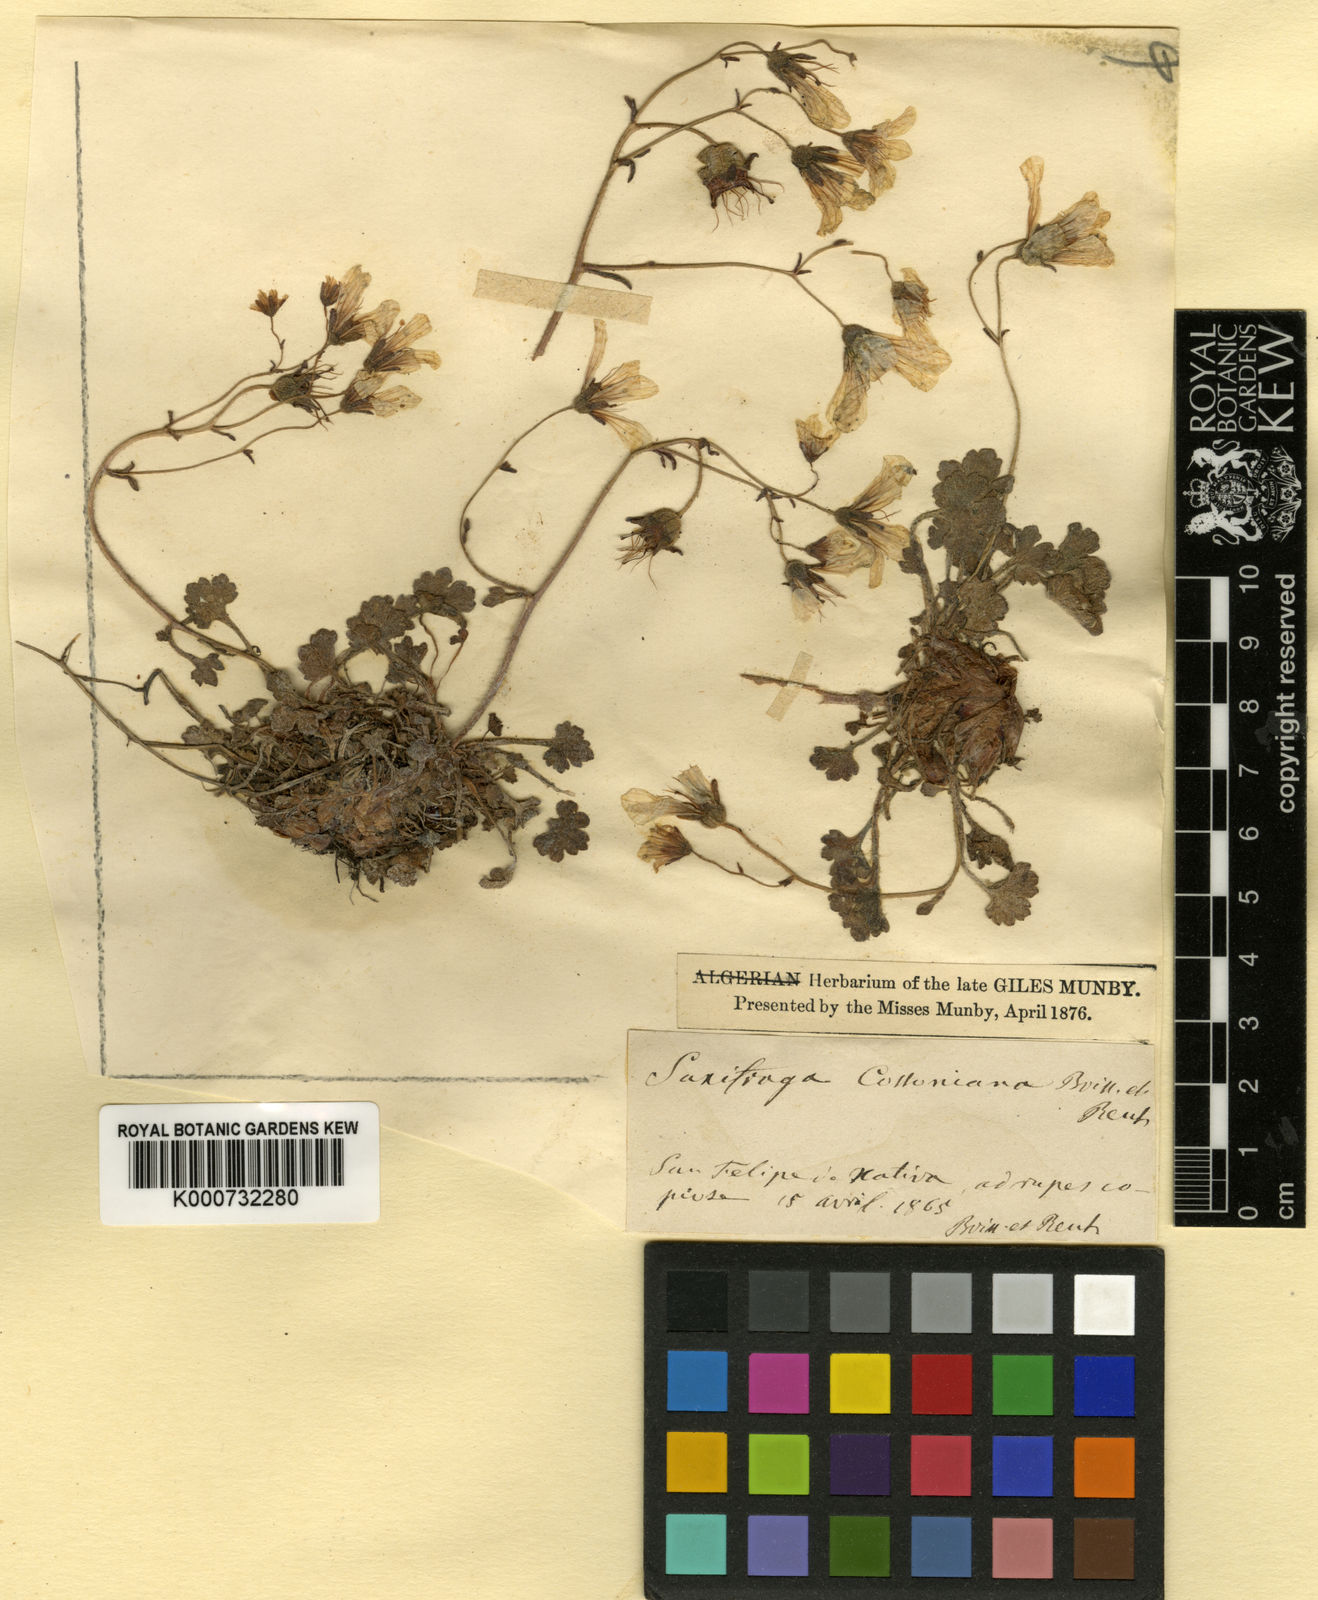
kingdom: Plantae
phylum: Tracheophyta
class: Magnoliopsida
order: Saxifragales
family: Saxifragaceae
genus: Saxifraga
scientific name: Saxifraga corsica
